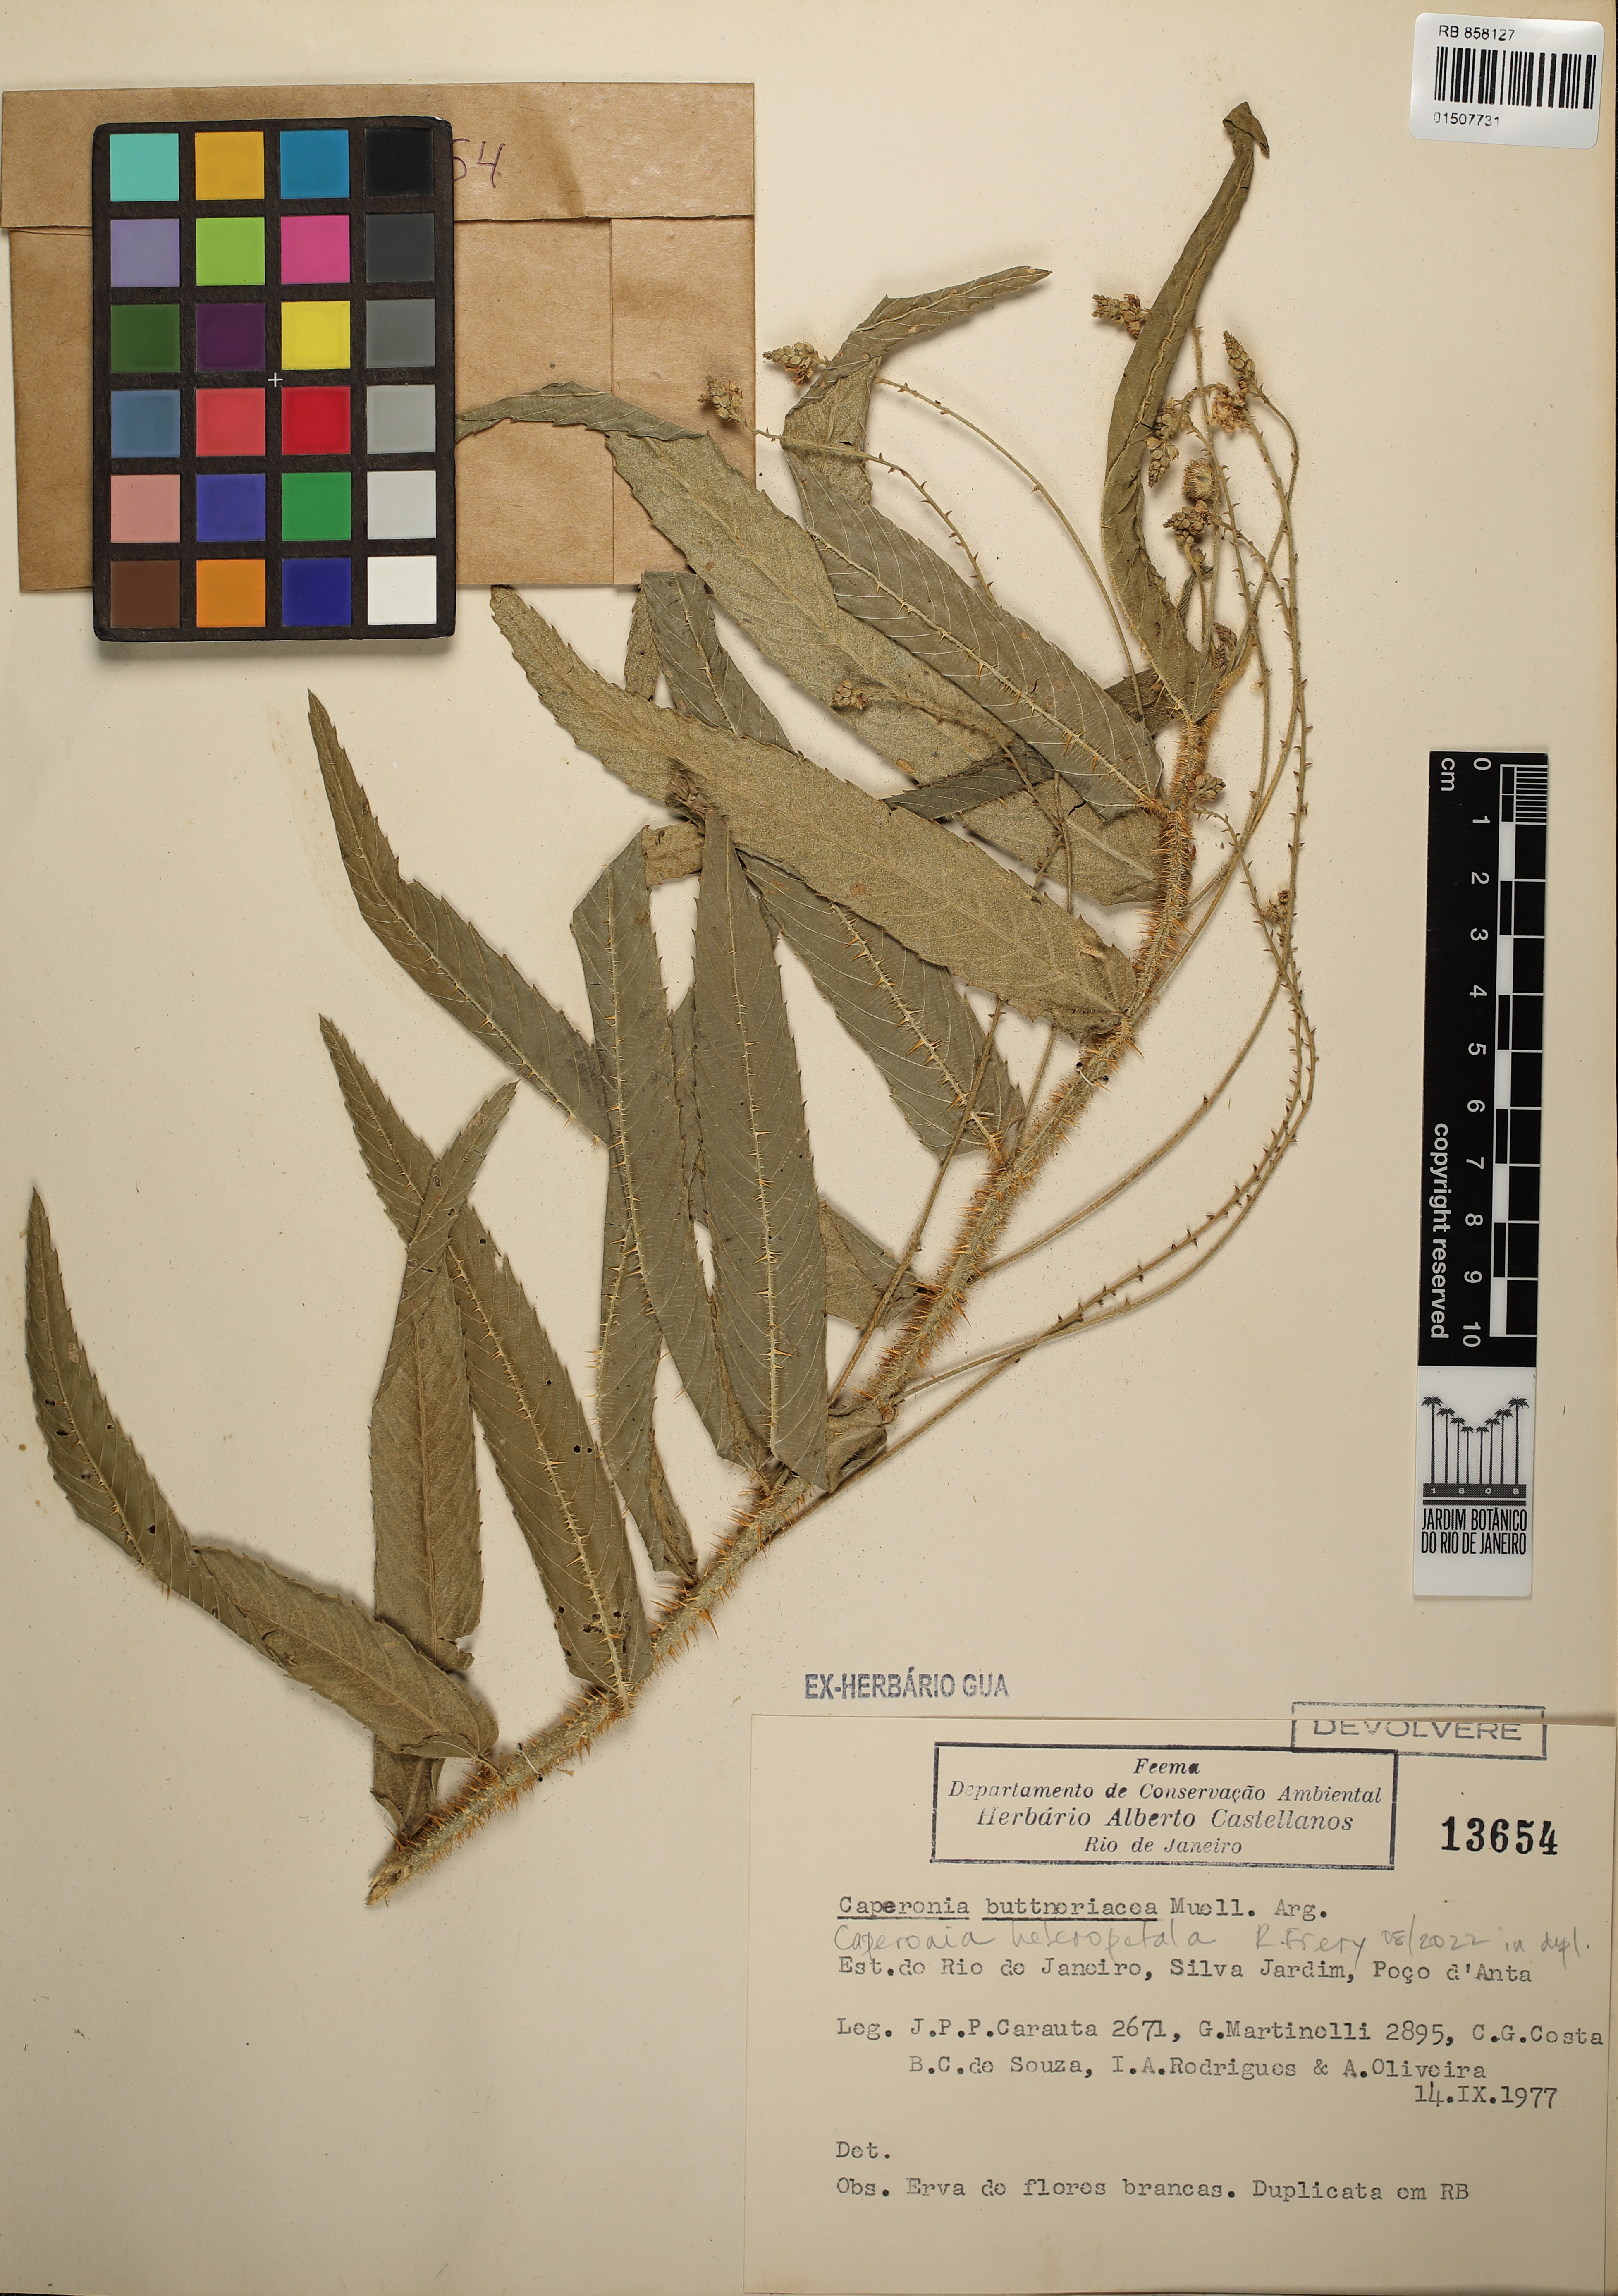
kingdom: Plantae
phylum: Tracheophyta
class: Magnoliopsida
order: Malpighiales
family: Euphorbiaceae
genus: Caperonia
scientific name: Caperonia heteropetala
